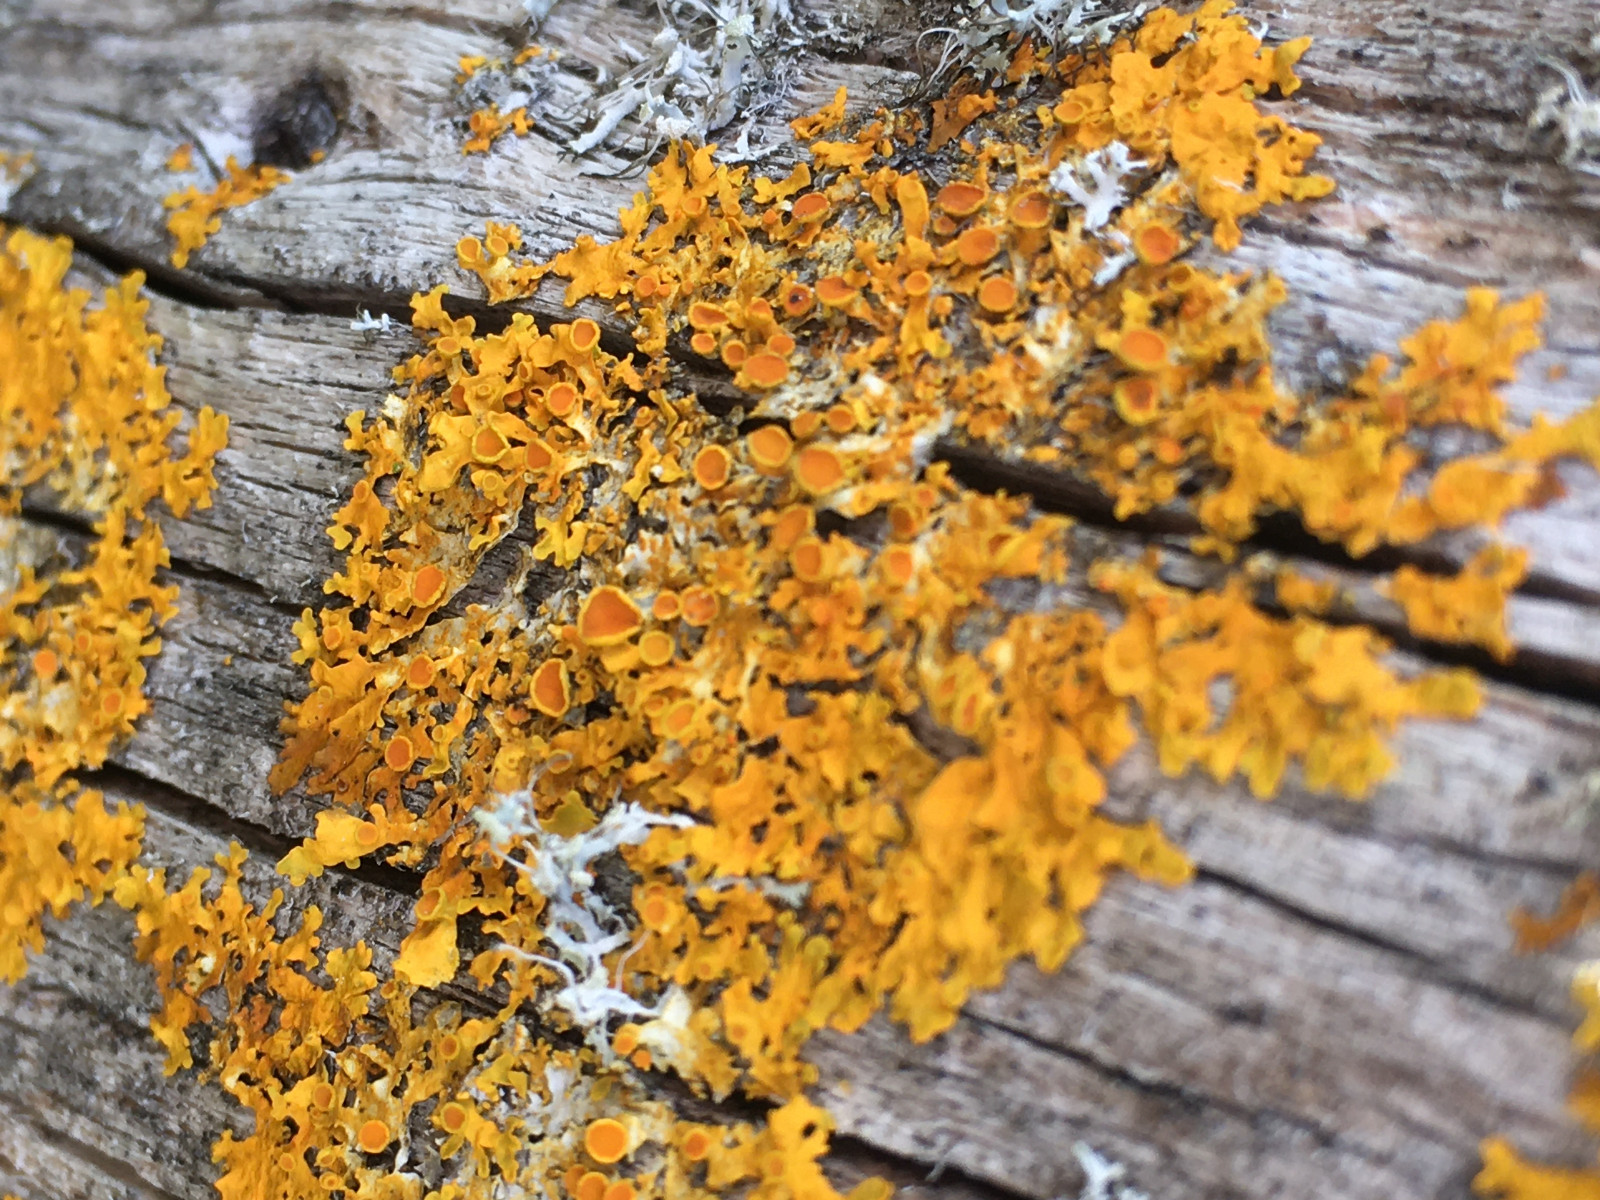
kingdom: Fungi
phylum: Ascomycota
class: Lecanoromycetes
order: Teloschistales
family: Teloschistaceae
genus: Xanthoria
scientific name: Xanthoria parietina
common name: almindelig væggelav
